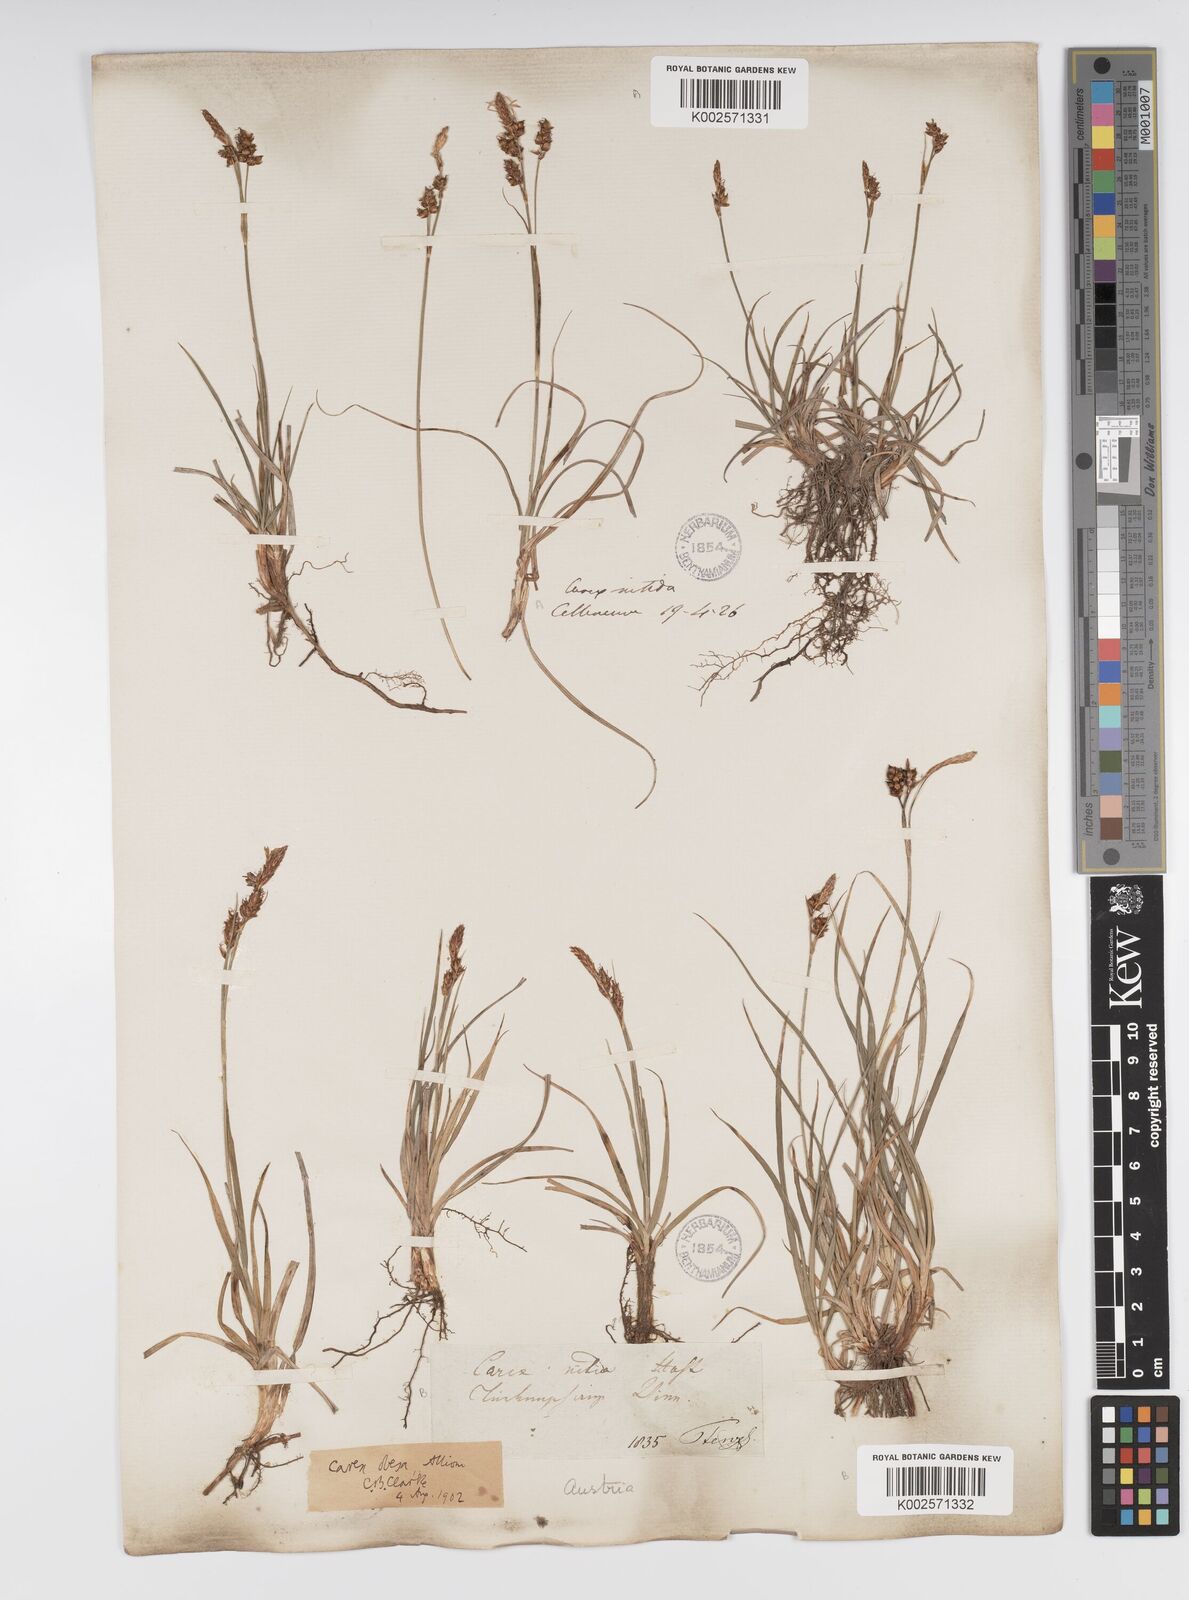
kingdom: Plantae
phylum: Tracheophyta
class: Liliopsida
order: Poales
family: Cyperaceae
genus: Carex
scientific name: Carex liparocarpos
